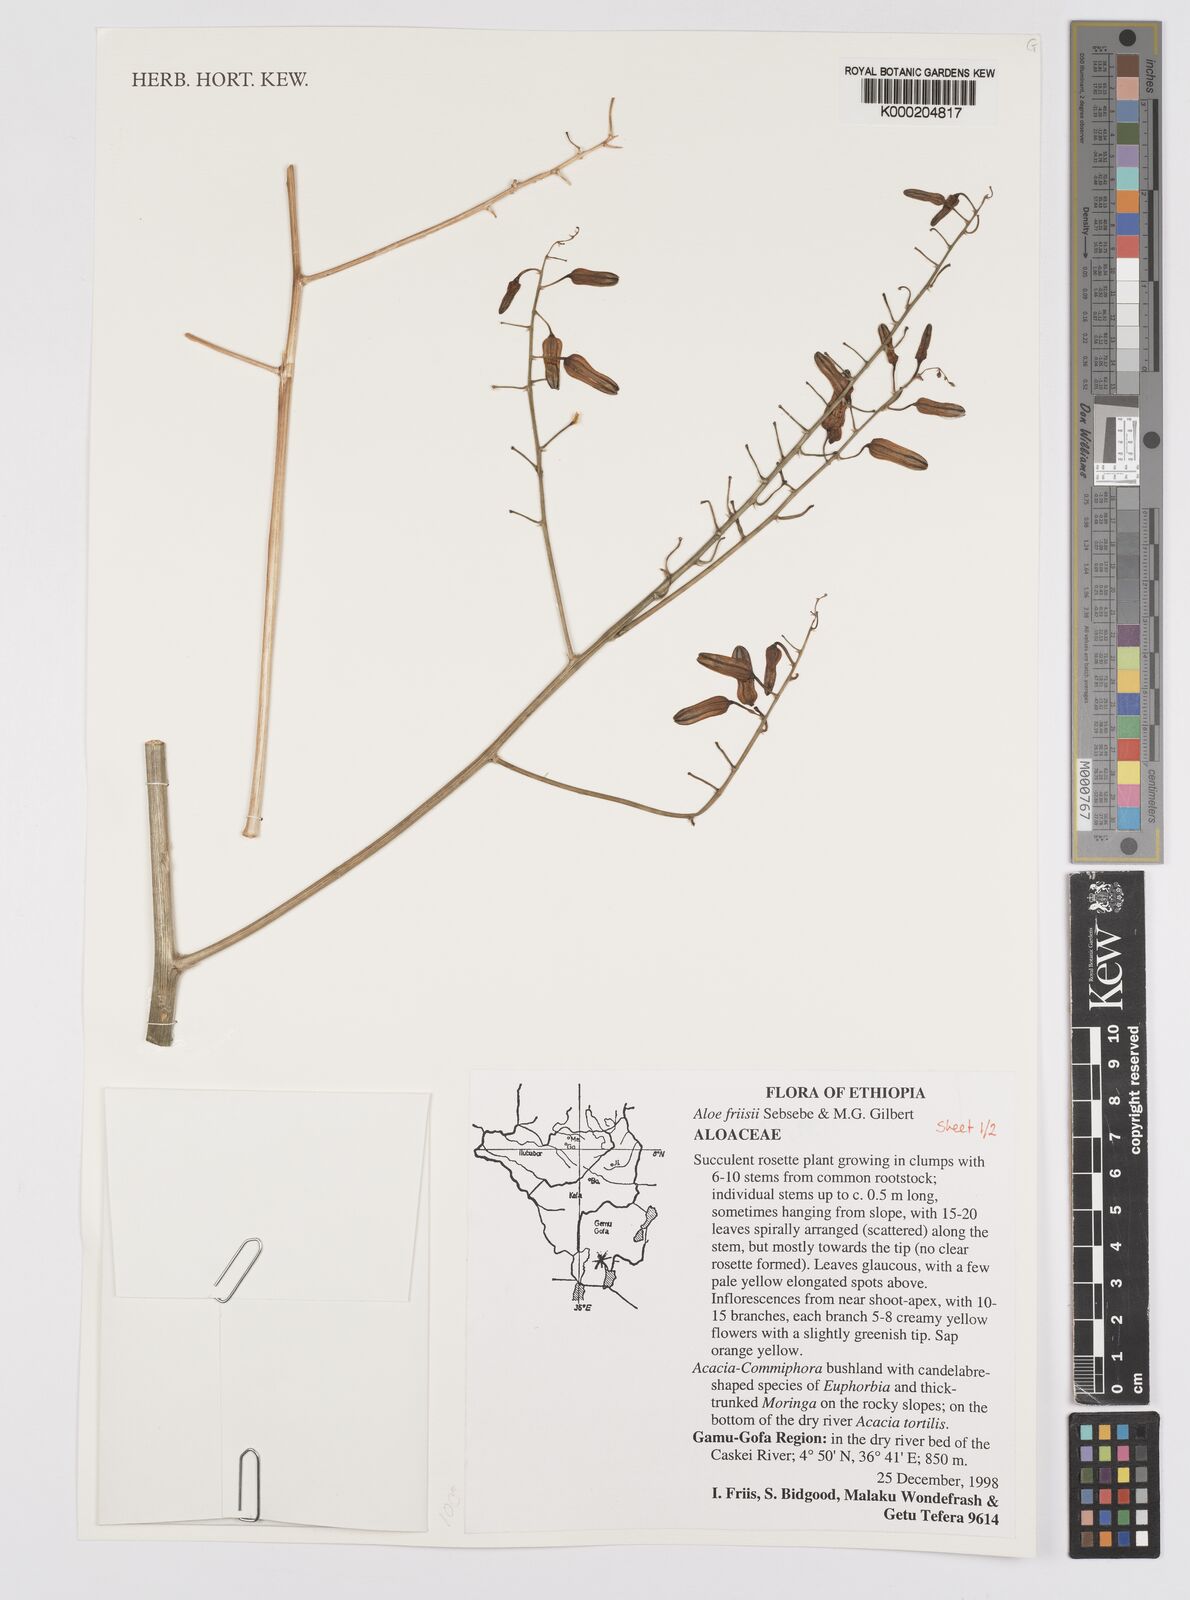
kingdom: Plantae
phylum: Tracheophyta
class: Liliopsida
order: Asparagales
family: Asphodelaceae
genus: Aloe
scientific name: Aloe friisii
